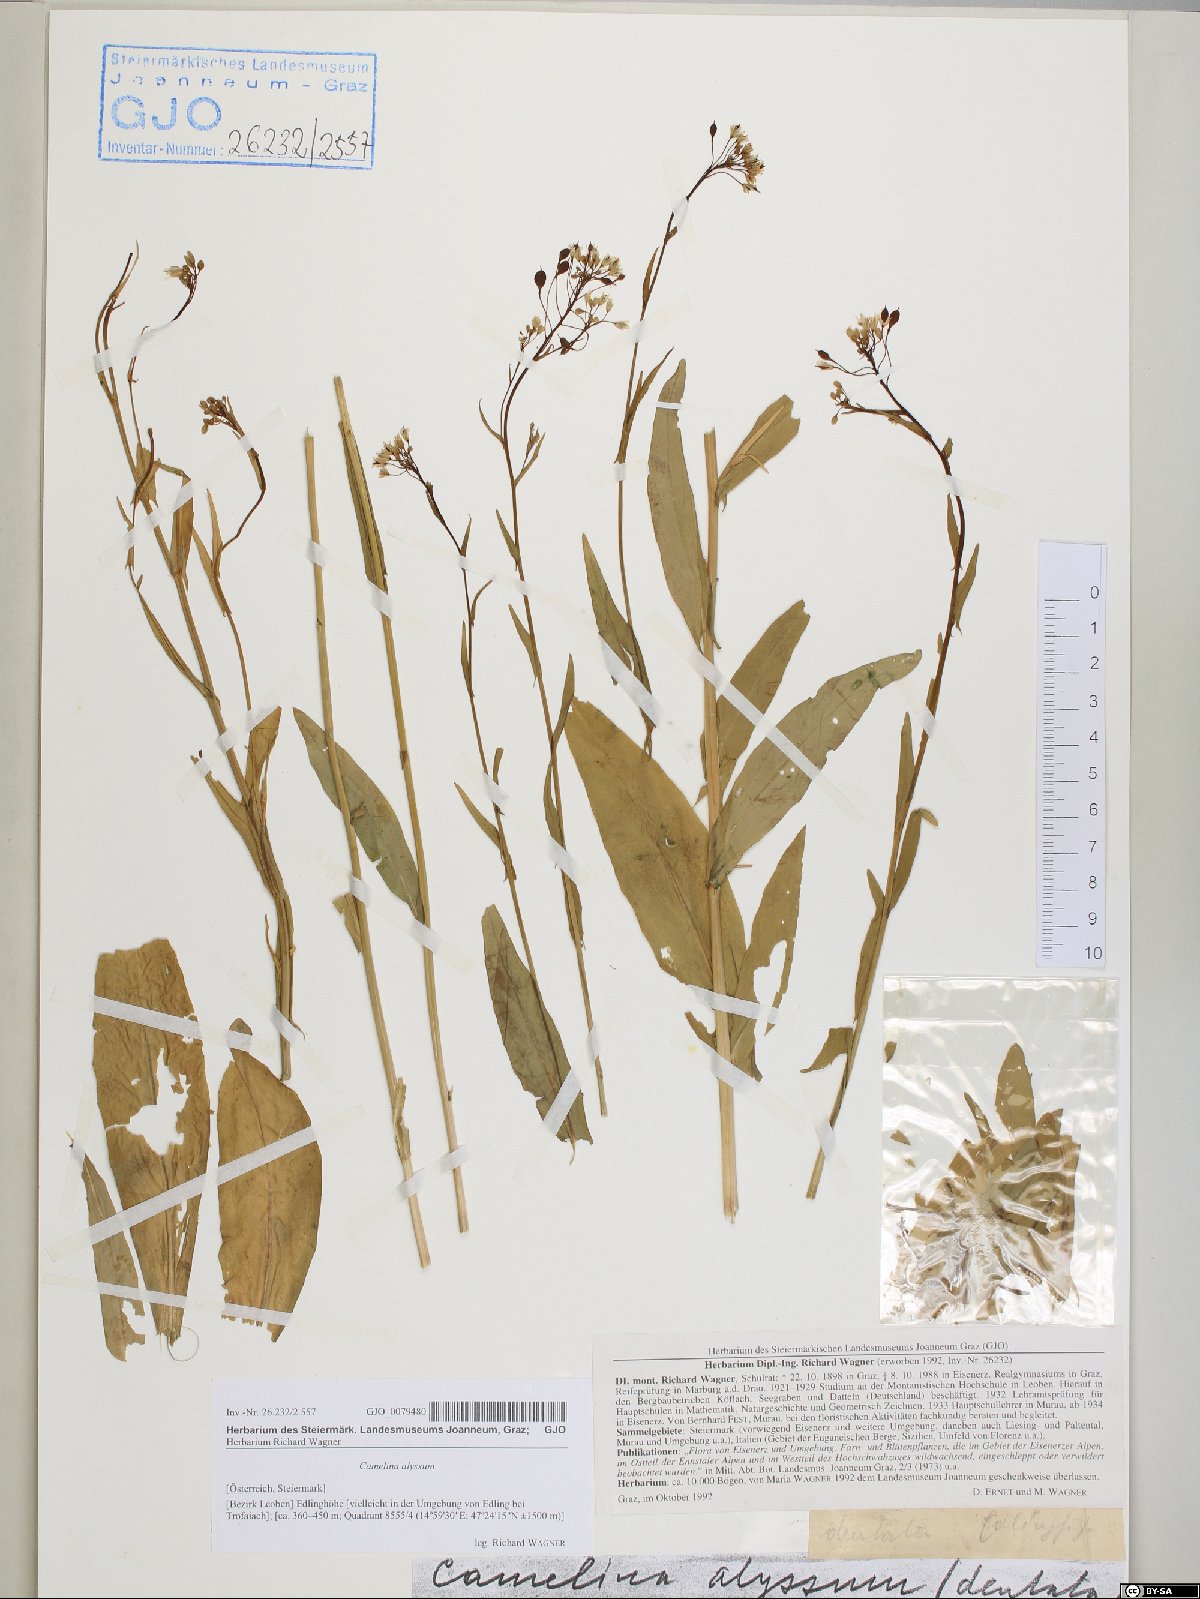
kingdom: Plantae
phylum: Tracheophyta
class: Magnoliopsida
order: Brassicales
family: Brassicaceae
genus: Camelina
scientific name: Camelina alyssum
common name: Gold-of-pleasure
